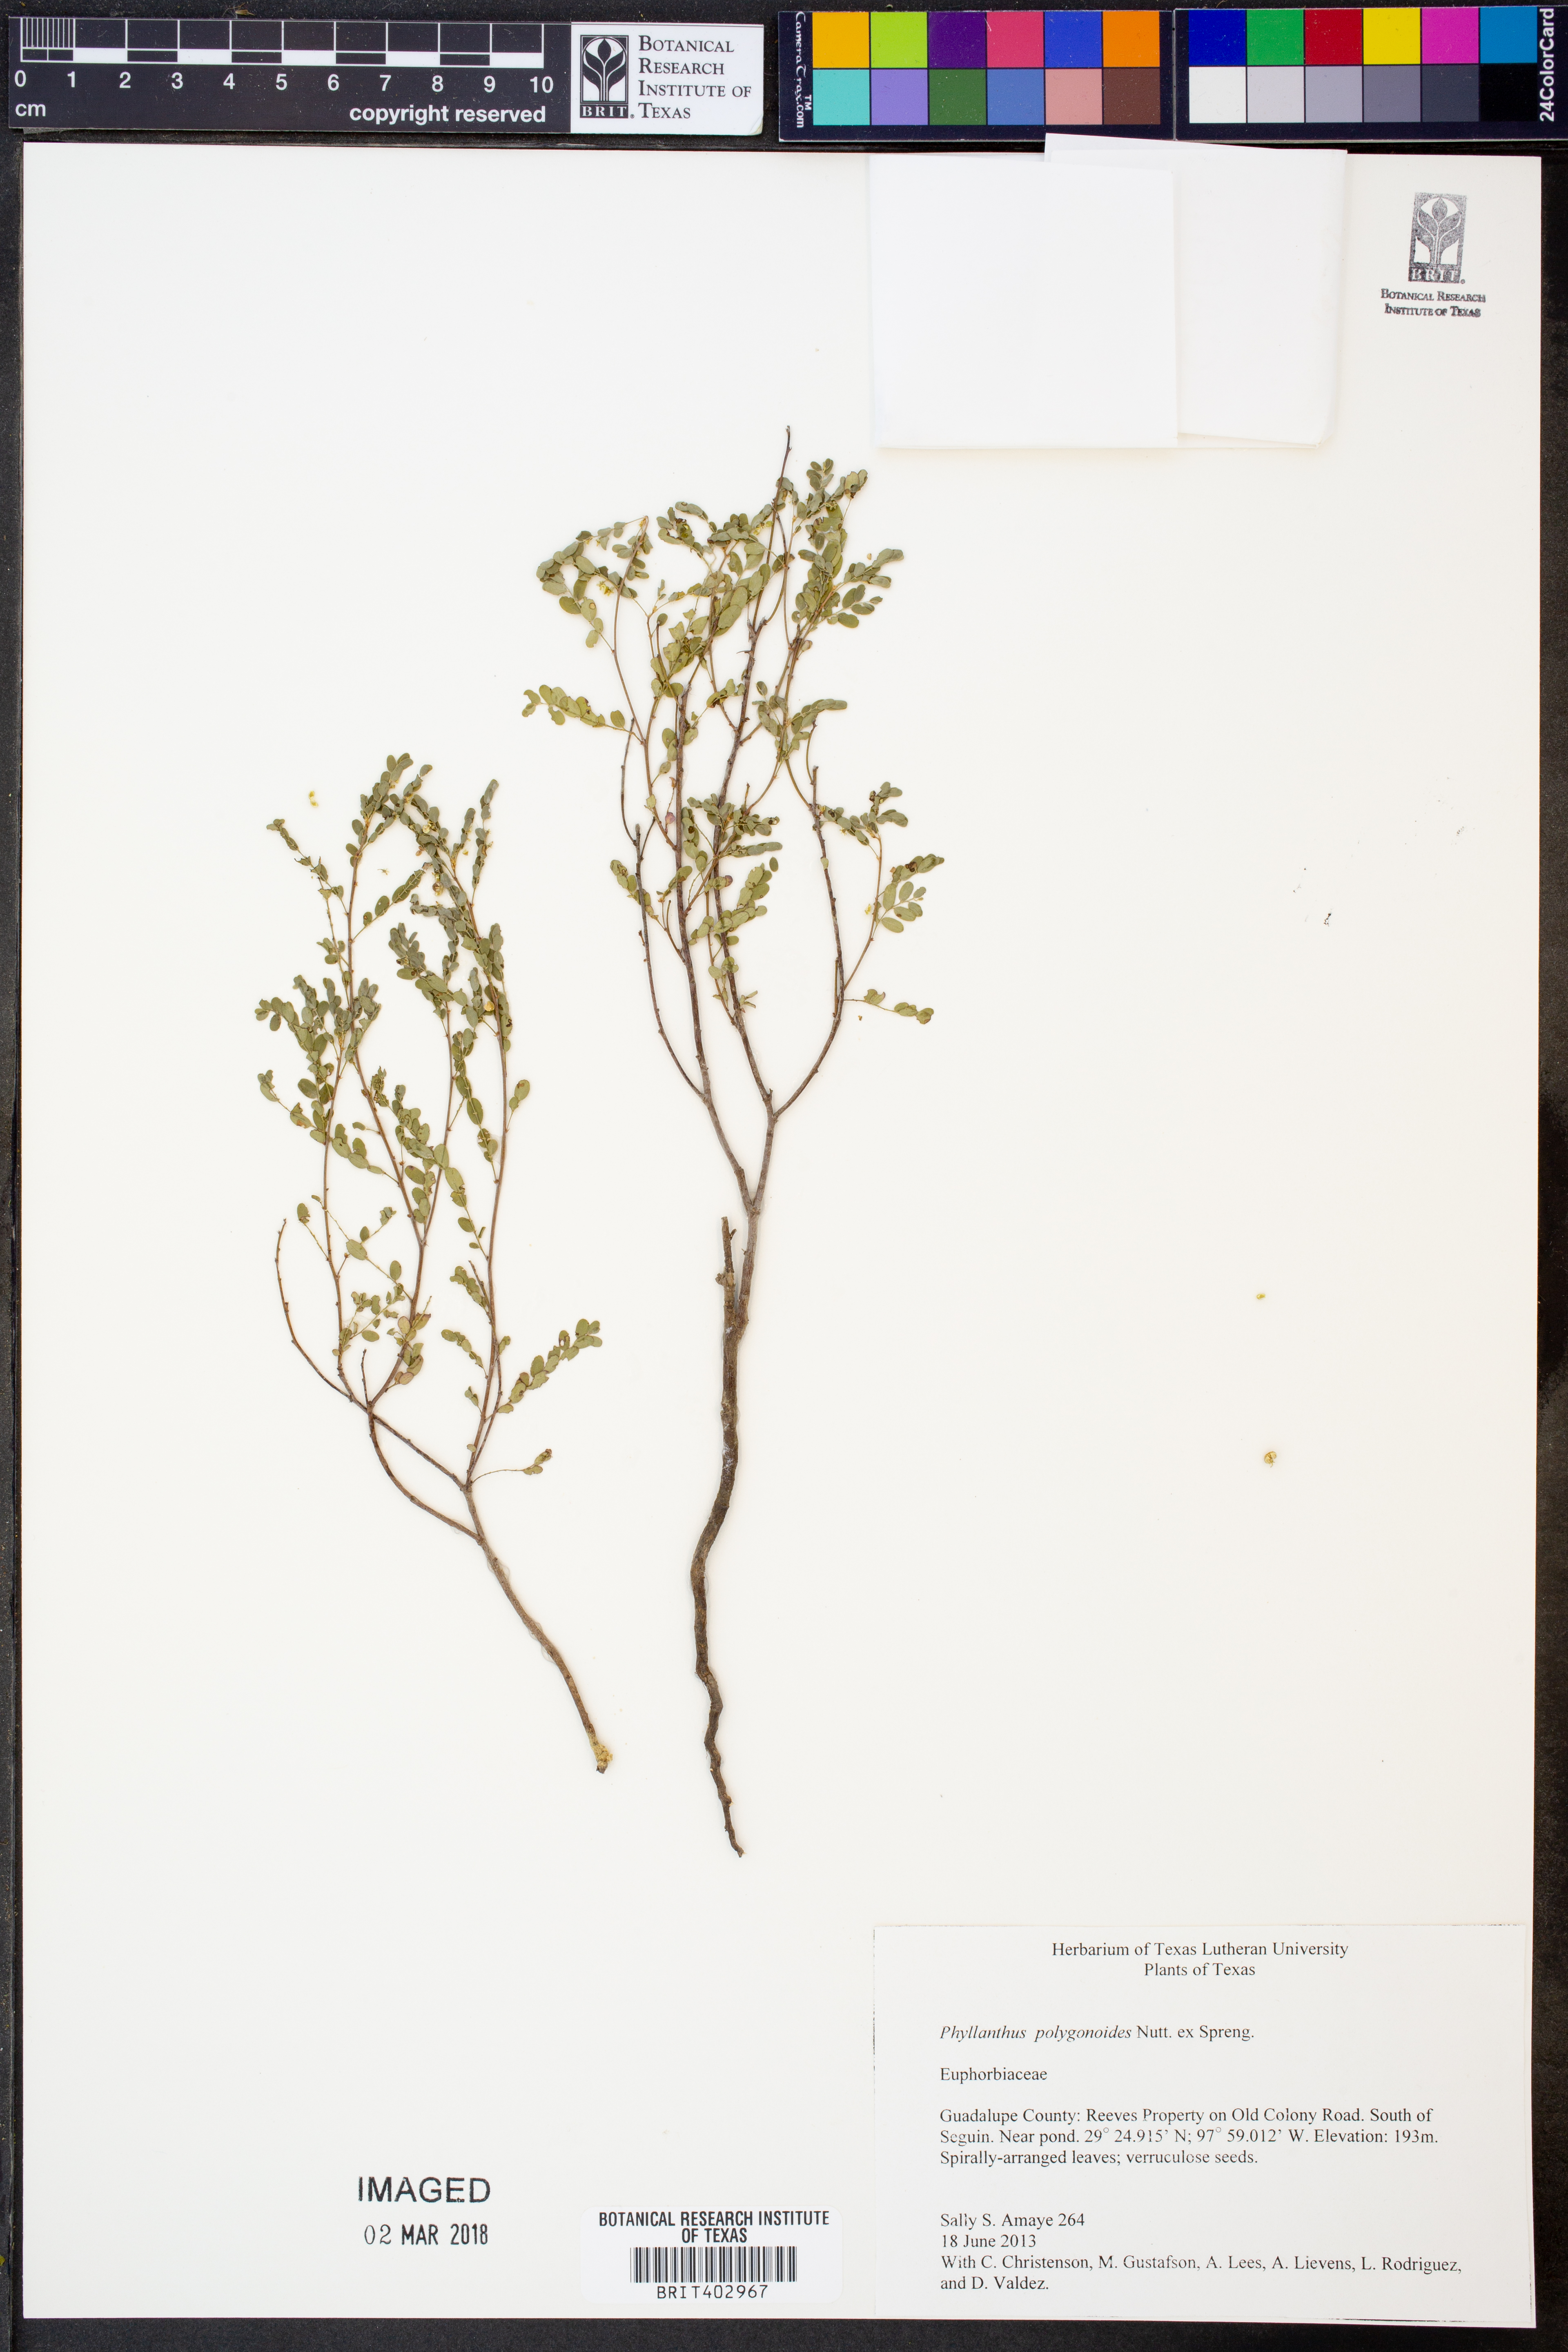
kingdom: Plantae
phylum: Tracheophyta
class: Magnoliopsida
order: Malpighiales
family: Phyllanthaceae
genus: Phyllanthus
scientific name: Phyllanthus polygonoides
